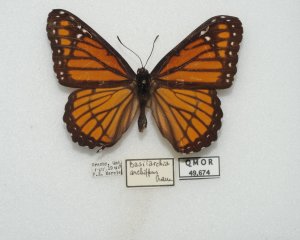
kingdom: Animalia
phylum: Arthropoda
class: Insecta
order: Lepidoptera
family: Nymphalidae
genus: Limenitis
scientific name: Limenitis archippus
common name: Viceroy
